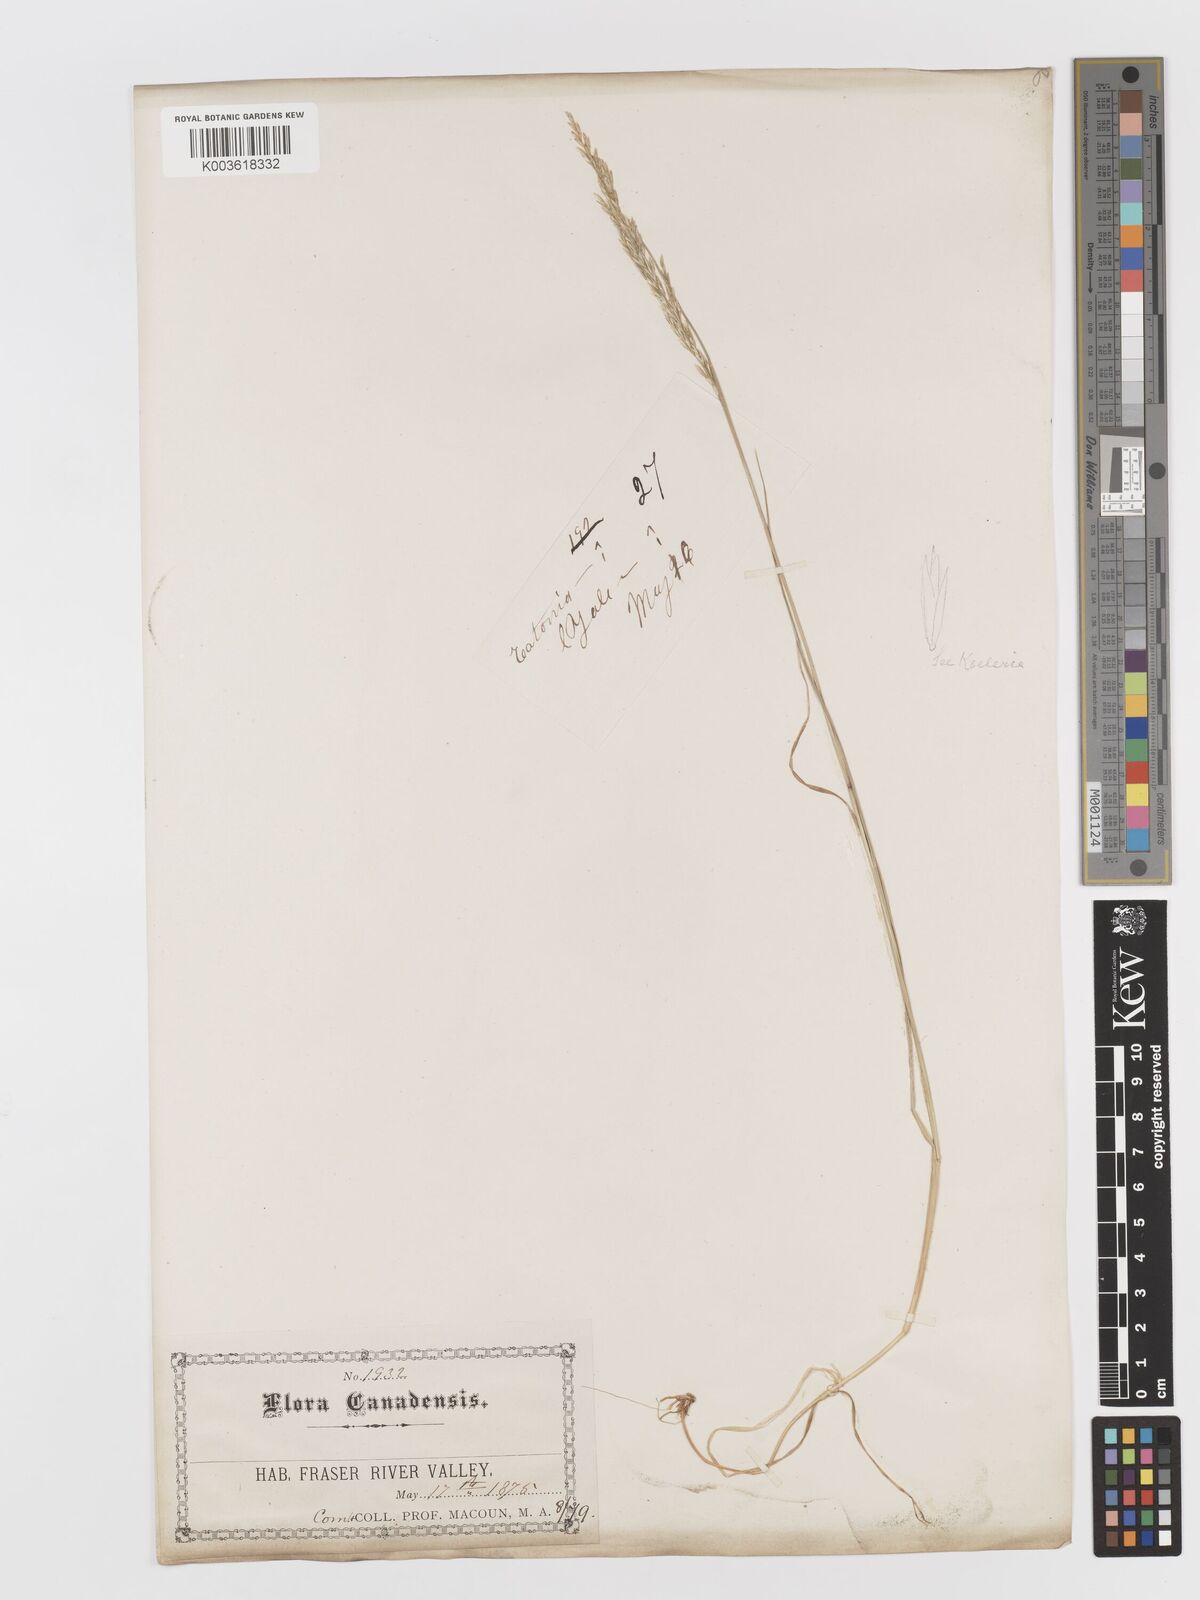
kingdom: Plantae
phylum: Tracheophyta
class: Liliopsida
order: Poales
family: Poaceae
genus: Koeleria
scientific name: Koeleria
